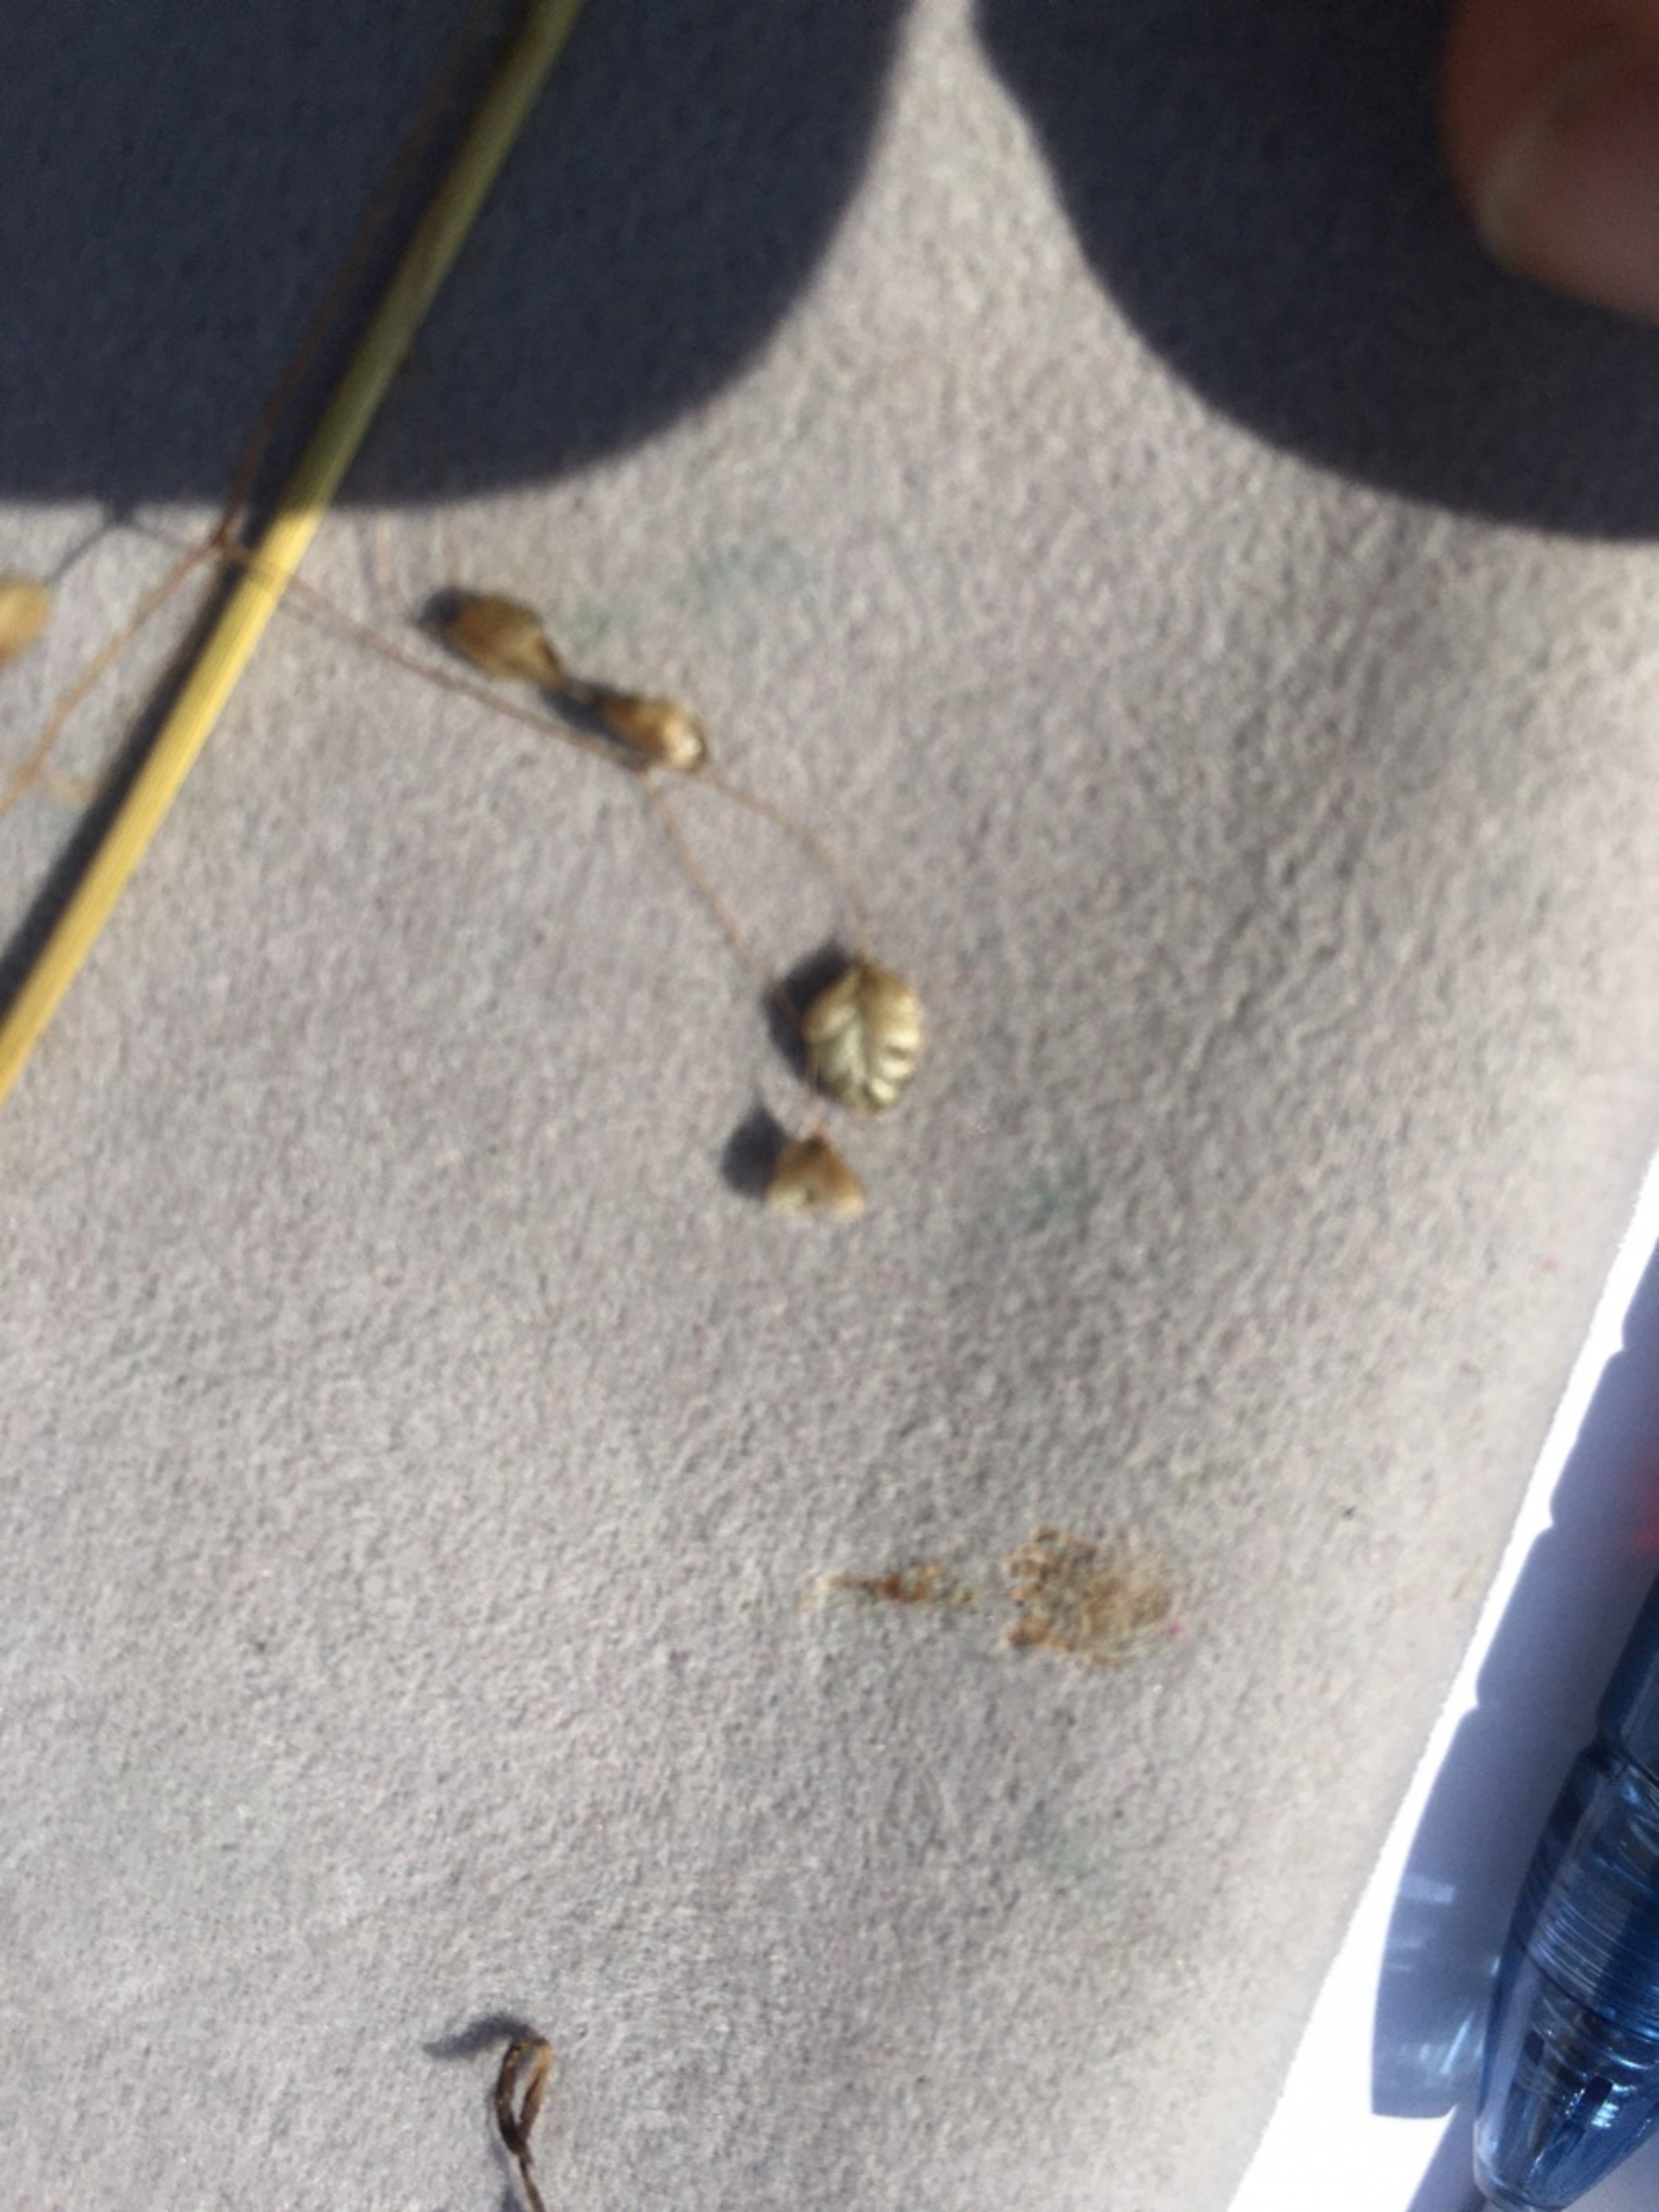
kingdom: Plantae
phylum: Tracheophyta
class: Liliopsida
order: Poales
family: Poaceae
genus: Briza
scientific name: Briza media
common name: Hjertegræs
